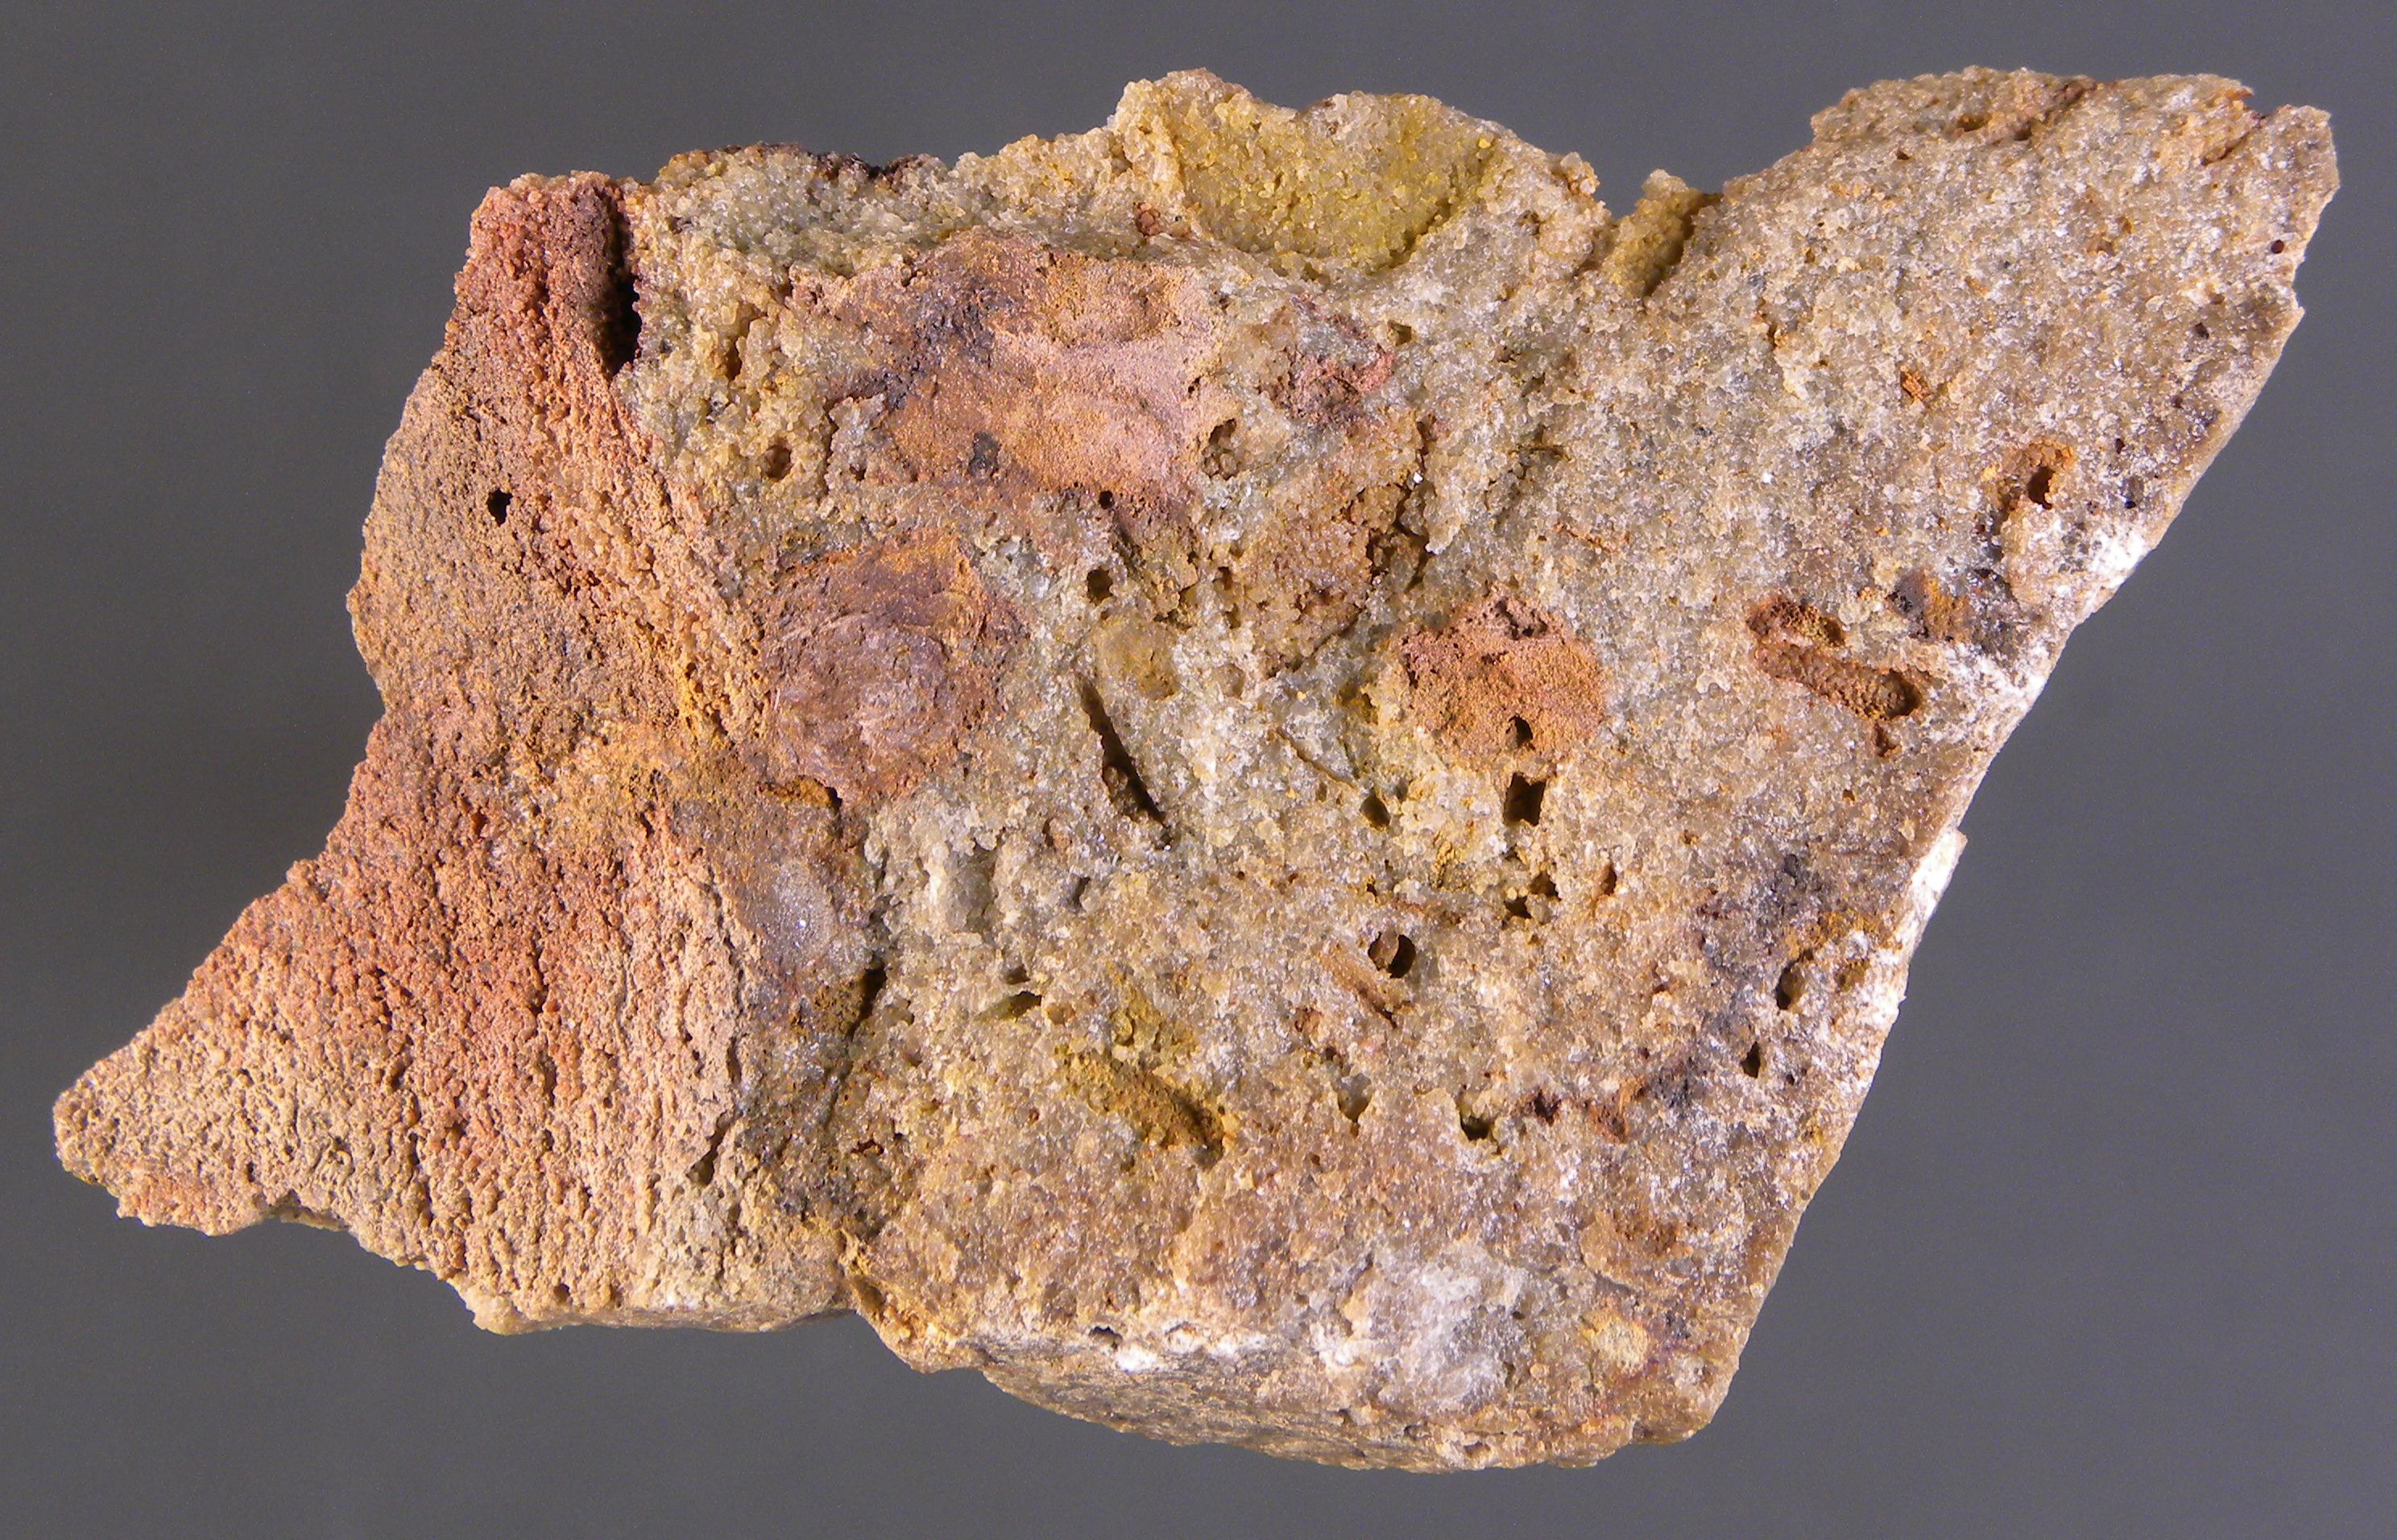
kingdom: Animalia
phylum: Brachiopoda
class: Rhynchonellata
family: Rhipidomellidae
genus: Platyorthis
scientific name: Platyorthis
